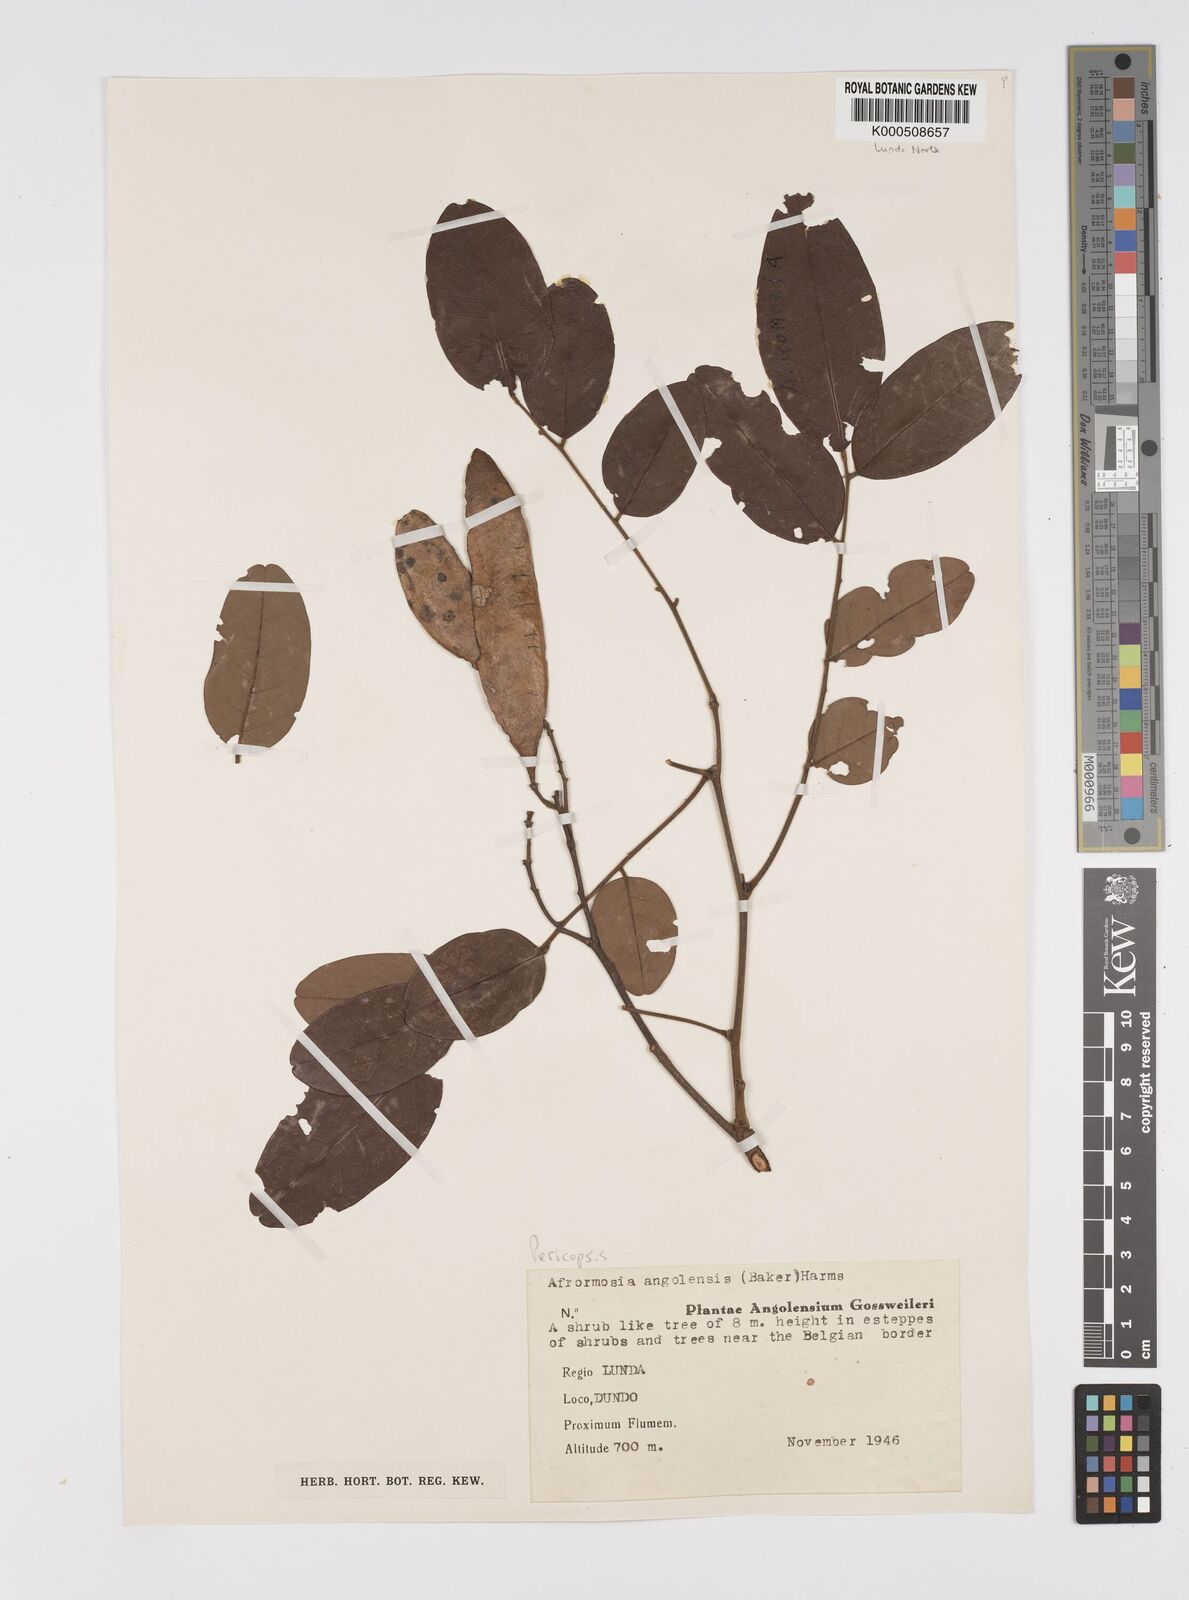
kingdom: Plantae
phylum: Tracheophyta
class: Magnoliopsida
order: Fabales
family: Fabaceae
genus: Pericopsis
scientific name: Pericopsis angolensis
